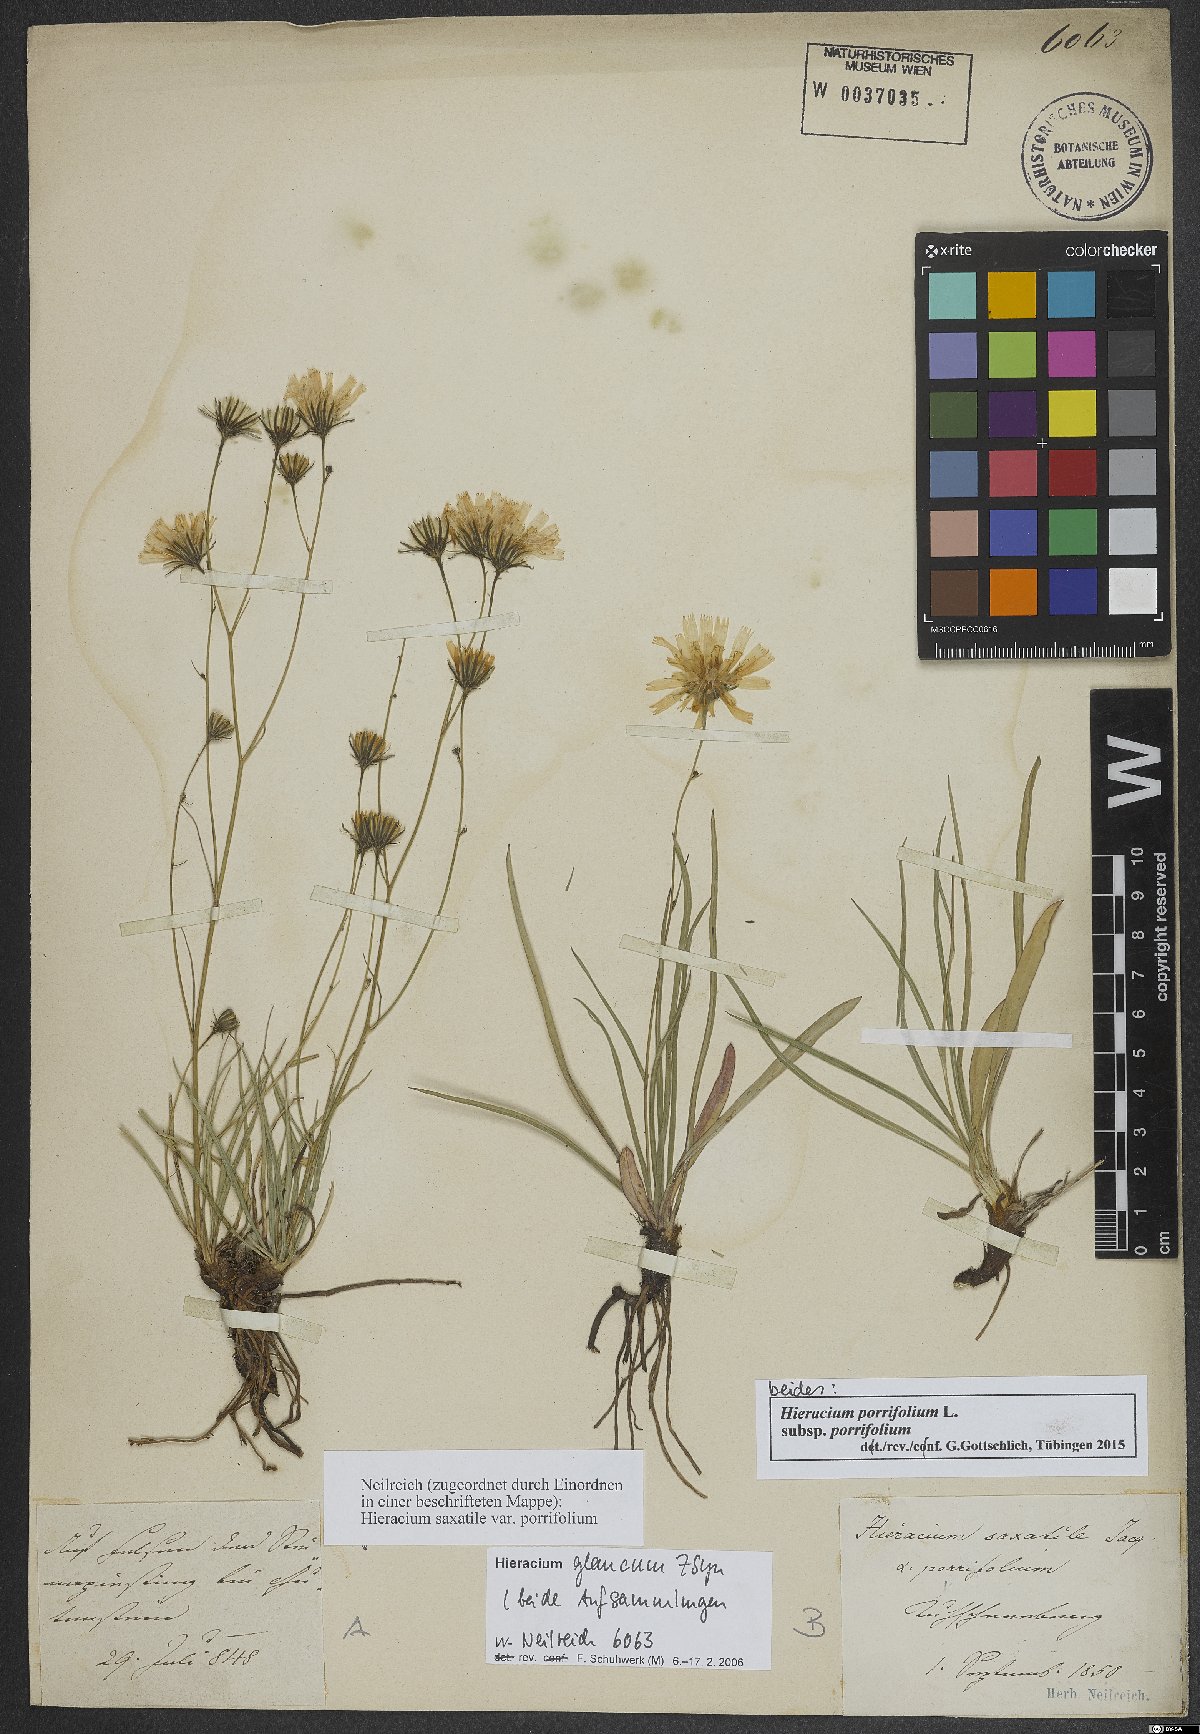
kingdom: Plantae
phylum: Tracheophyta
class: Magnoliopsida
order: Asterales
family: Asteraceae
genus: Hieracium
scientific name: Hieracium porrifolium
